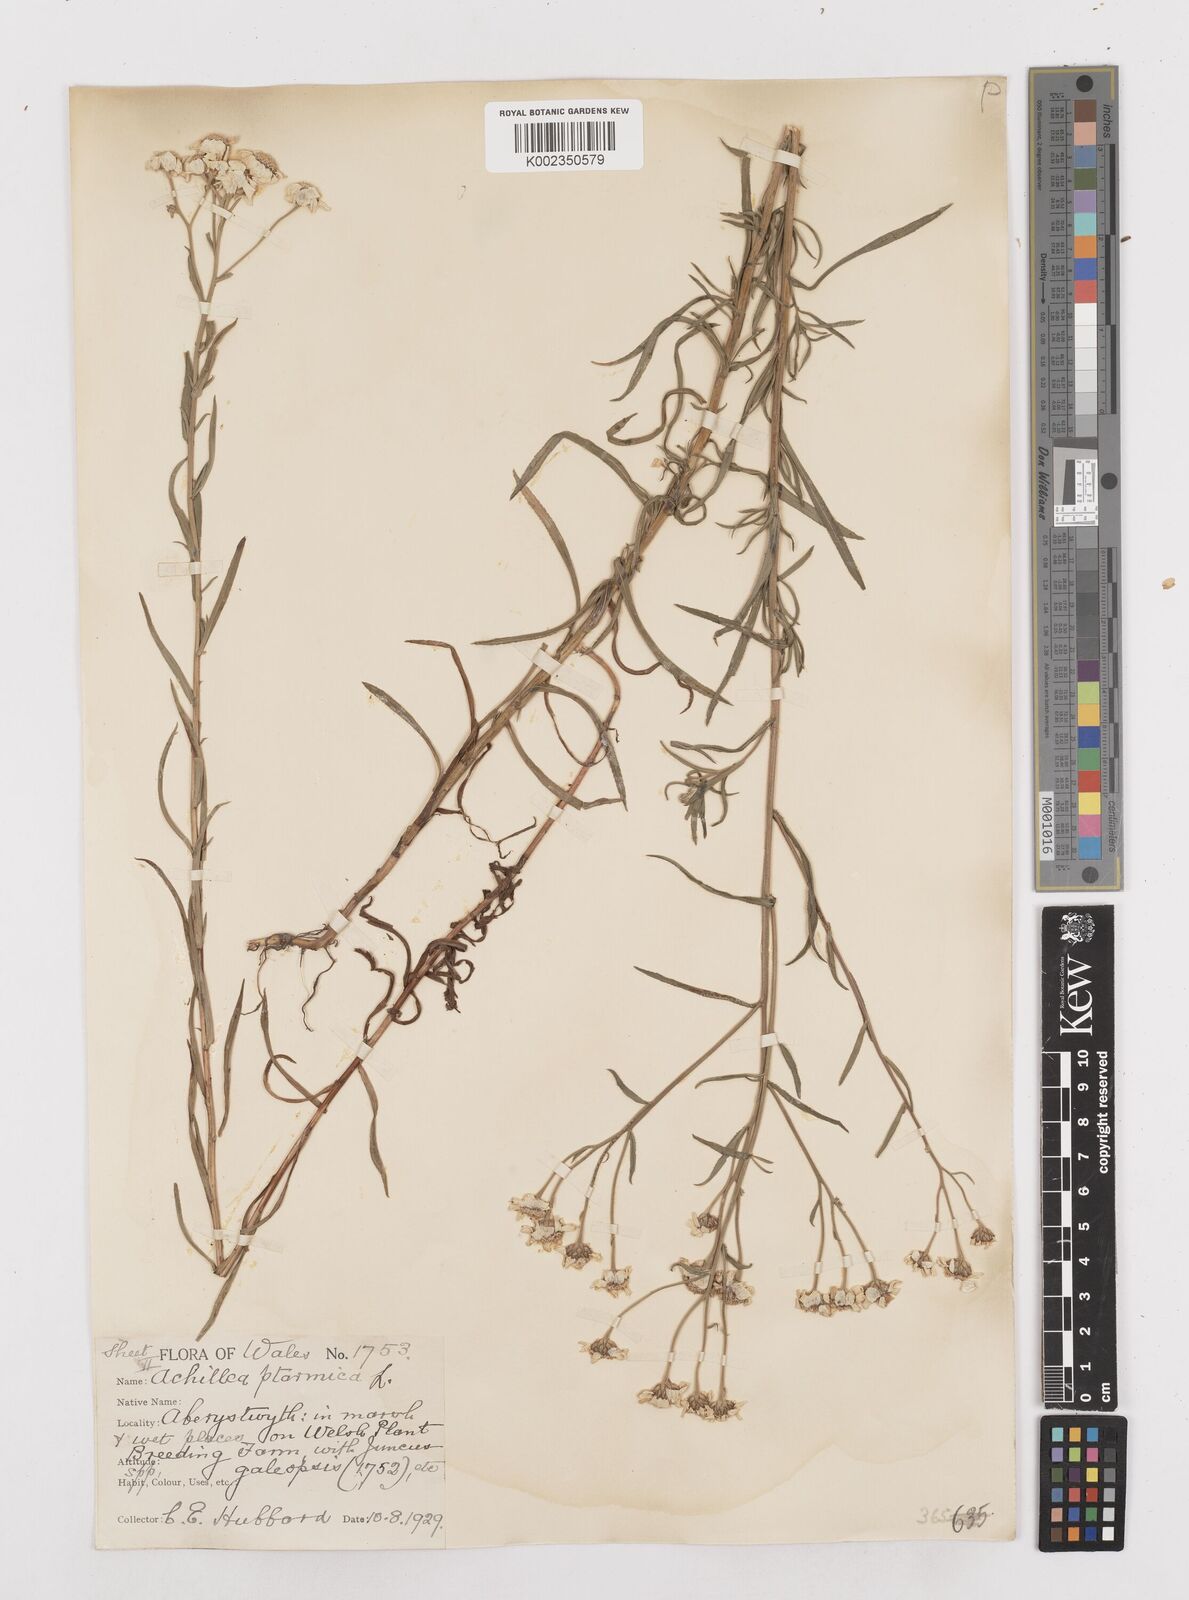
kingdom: Plantae
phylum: Tracheophyta
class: Magnoliopsida
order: Asterales
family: Asteraceae
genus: Achillea
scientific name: Achillea
